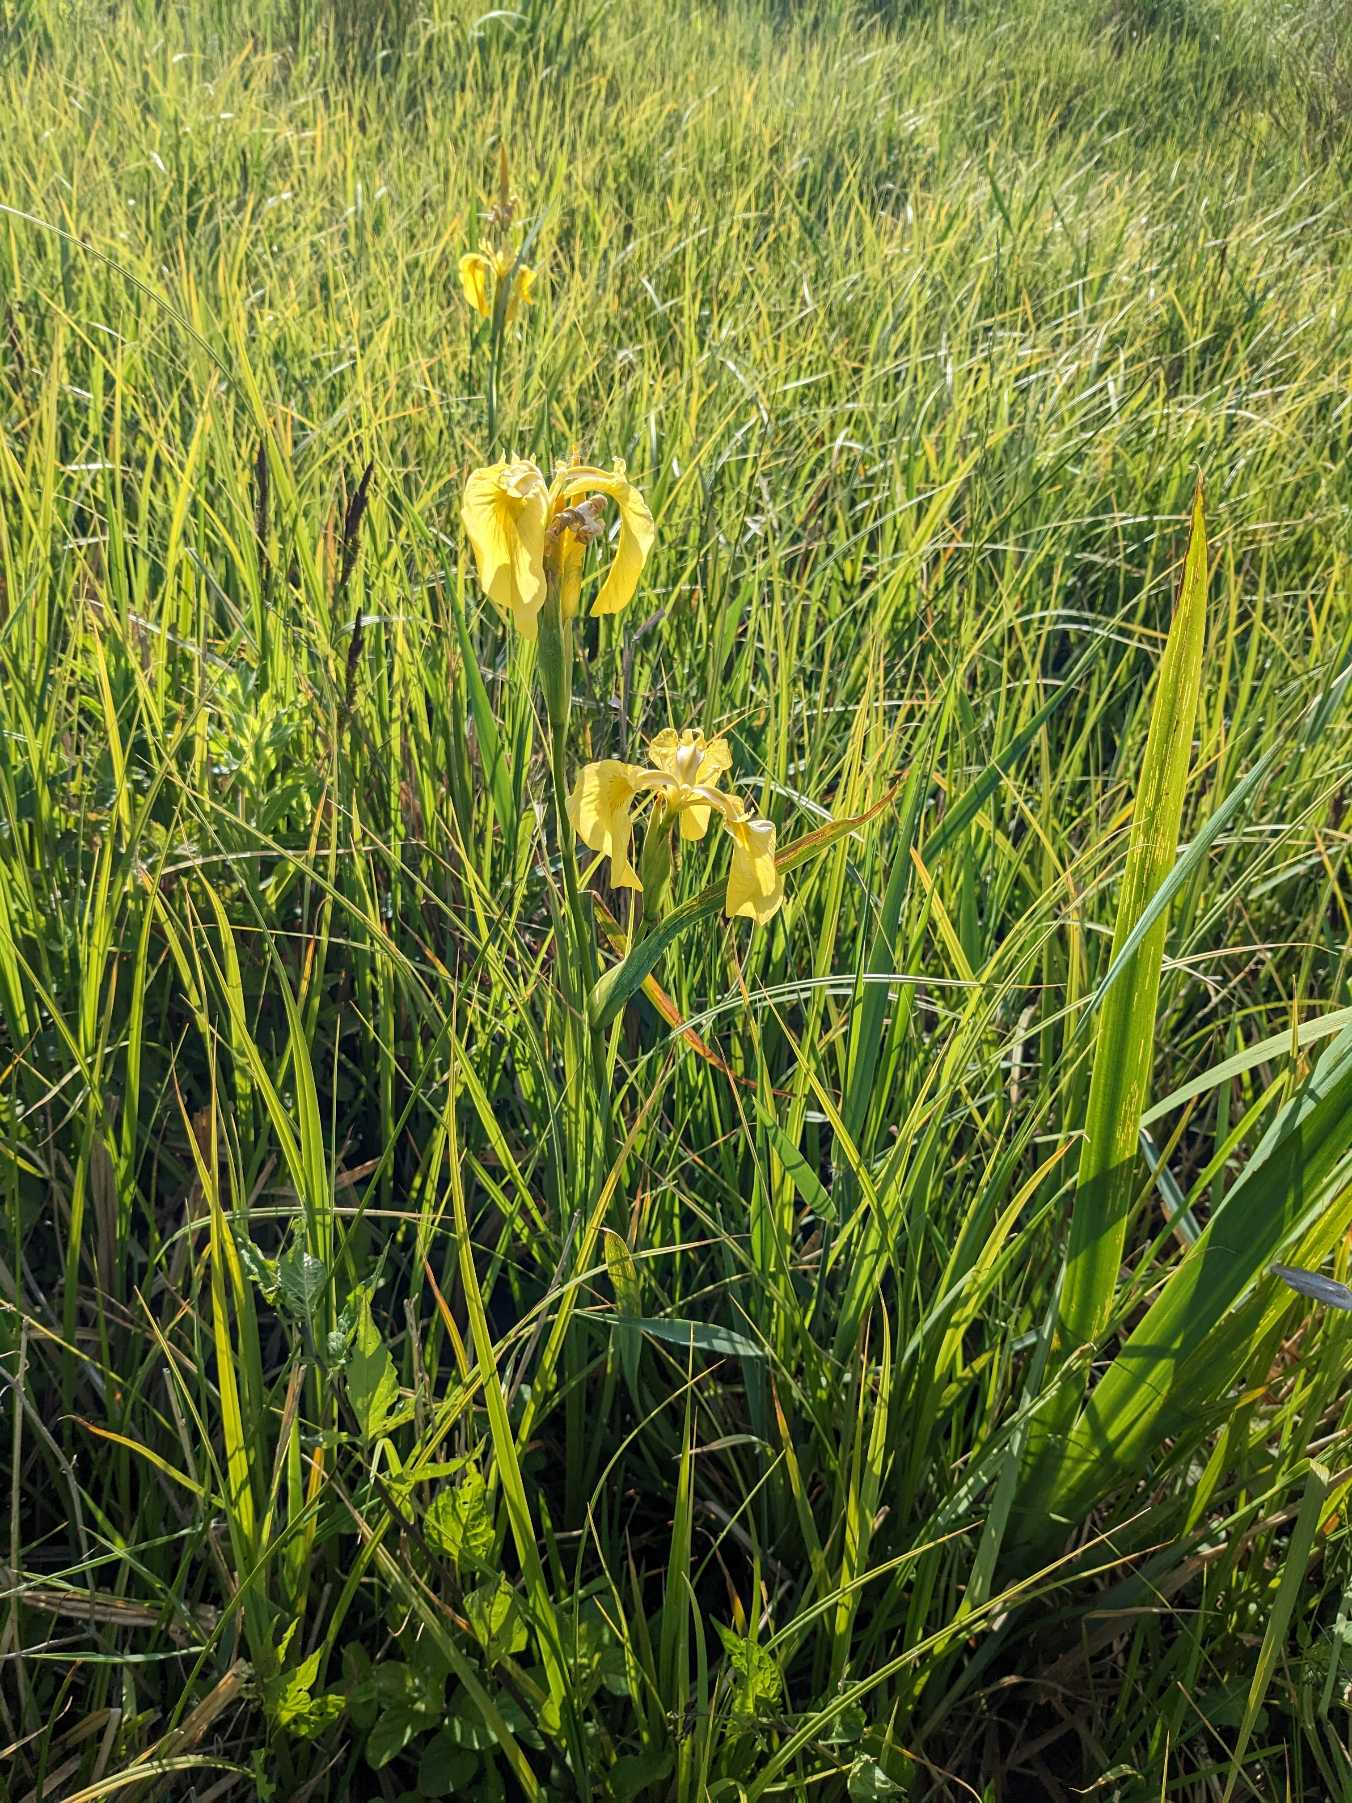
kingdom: Plantae
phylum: Tracheophyta
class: Liliopsida
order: Asparagales
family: Iridaceae
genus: Iris
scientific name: Iris pseudacorus
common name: Gul iris
